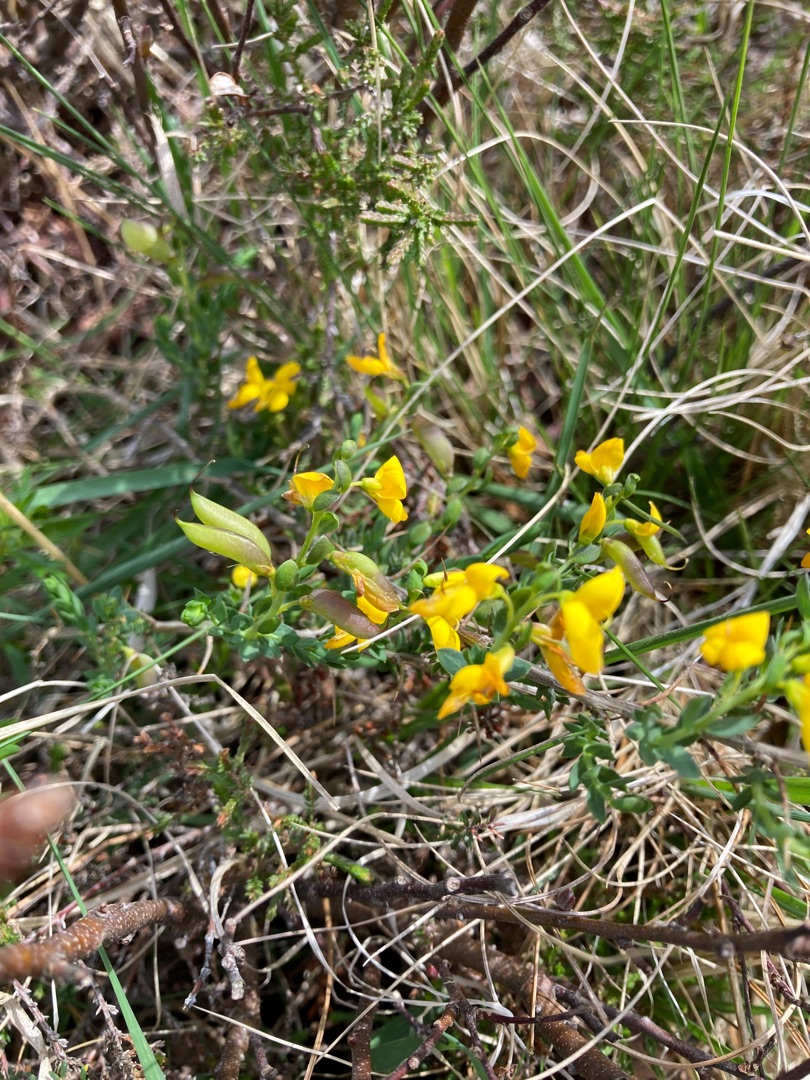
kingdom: Plantae
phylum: Tracheophyta
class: Magnoliopsida
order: Fabales
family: Fabaceae
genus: Genista
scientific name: Genista anglica
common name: Engelsk visse
